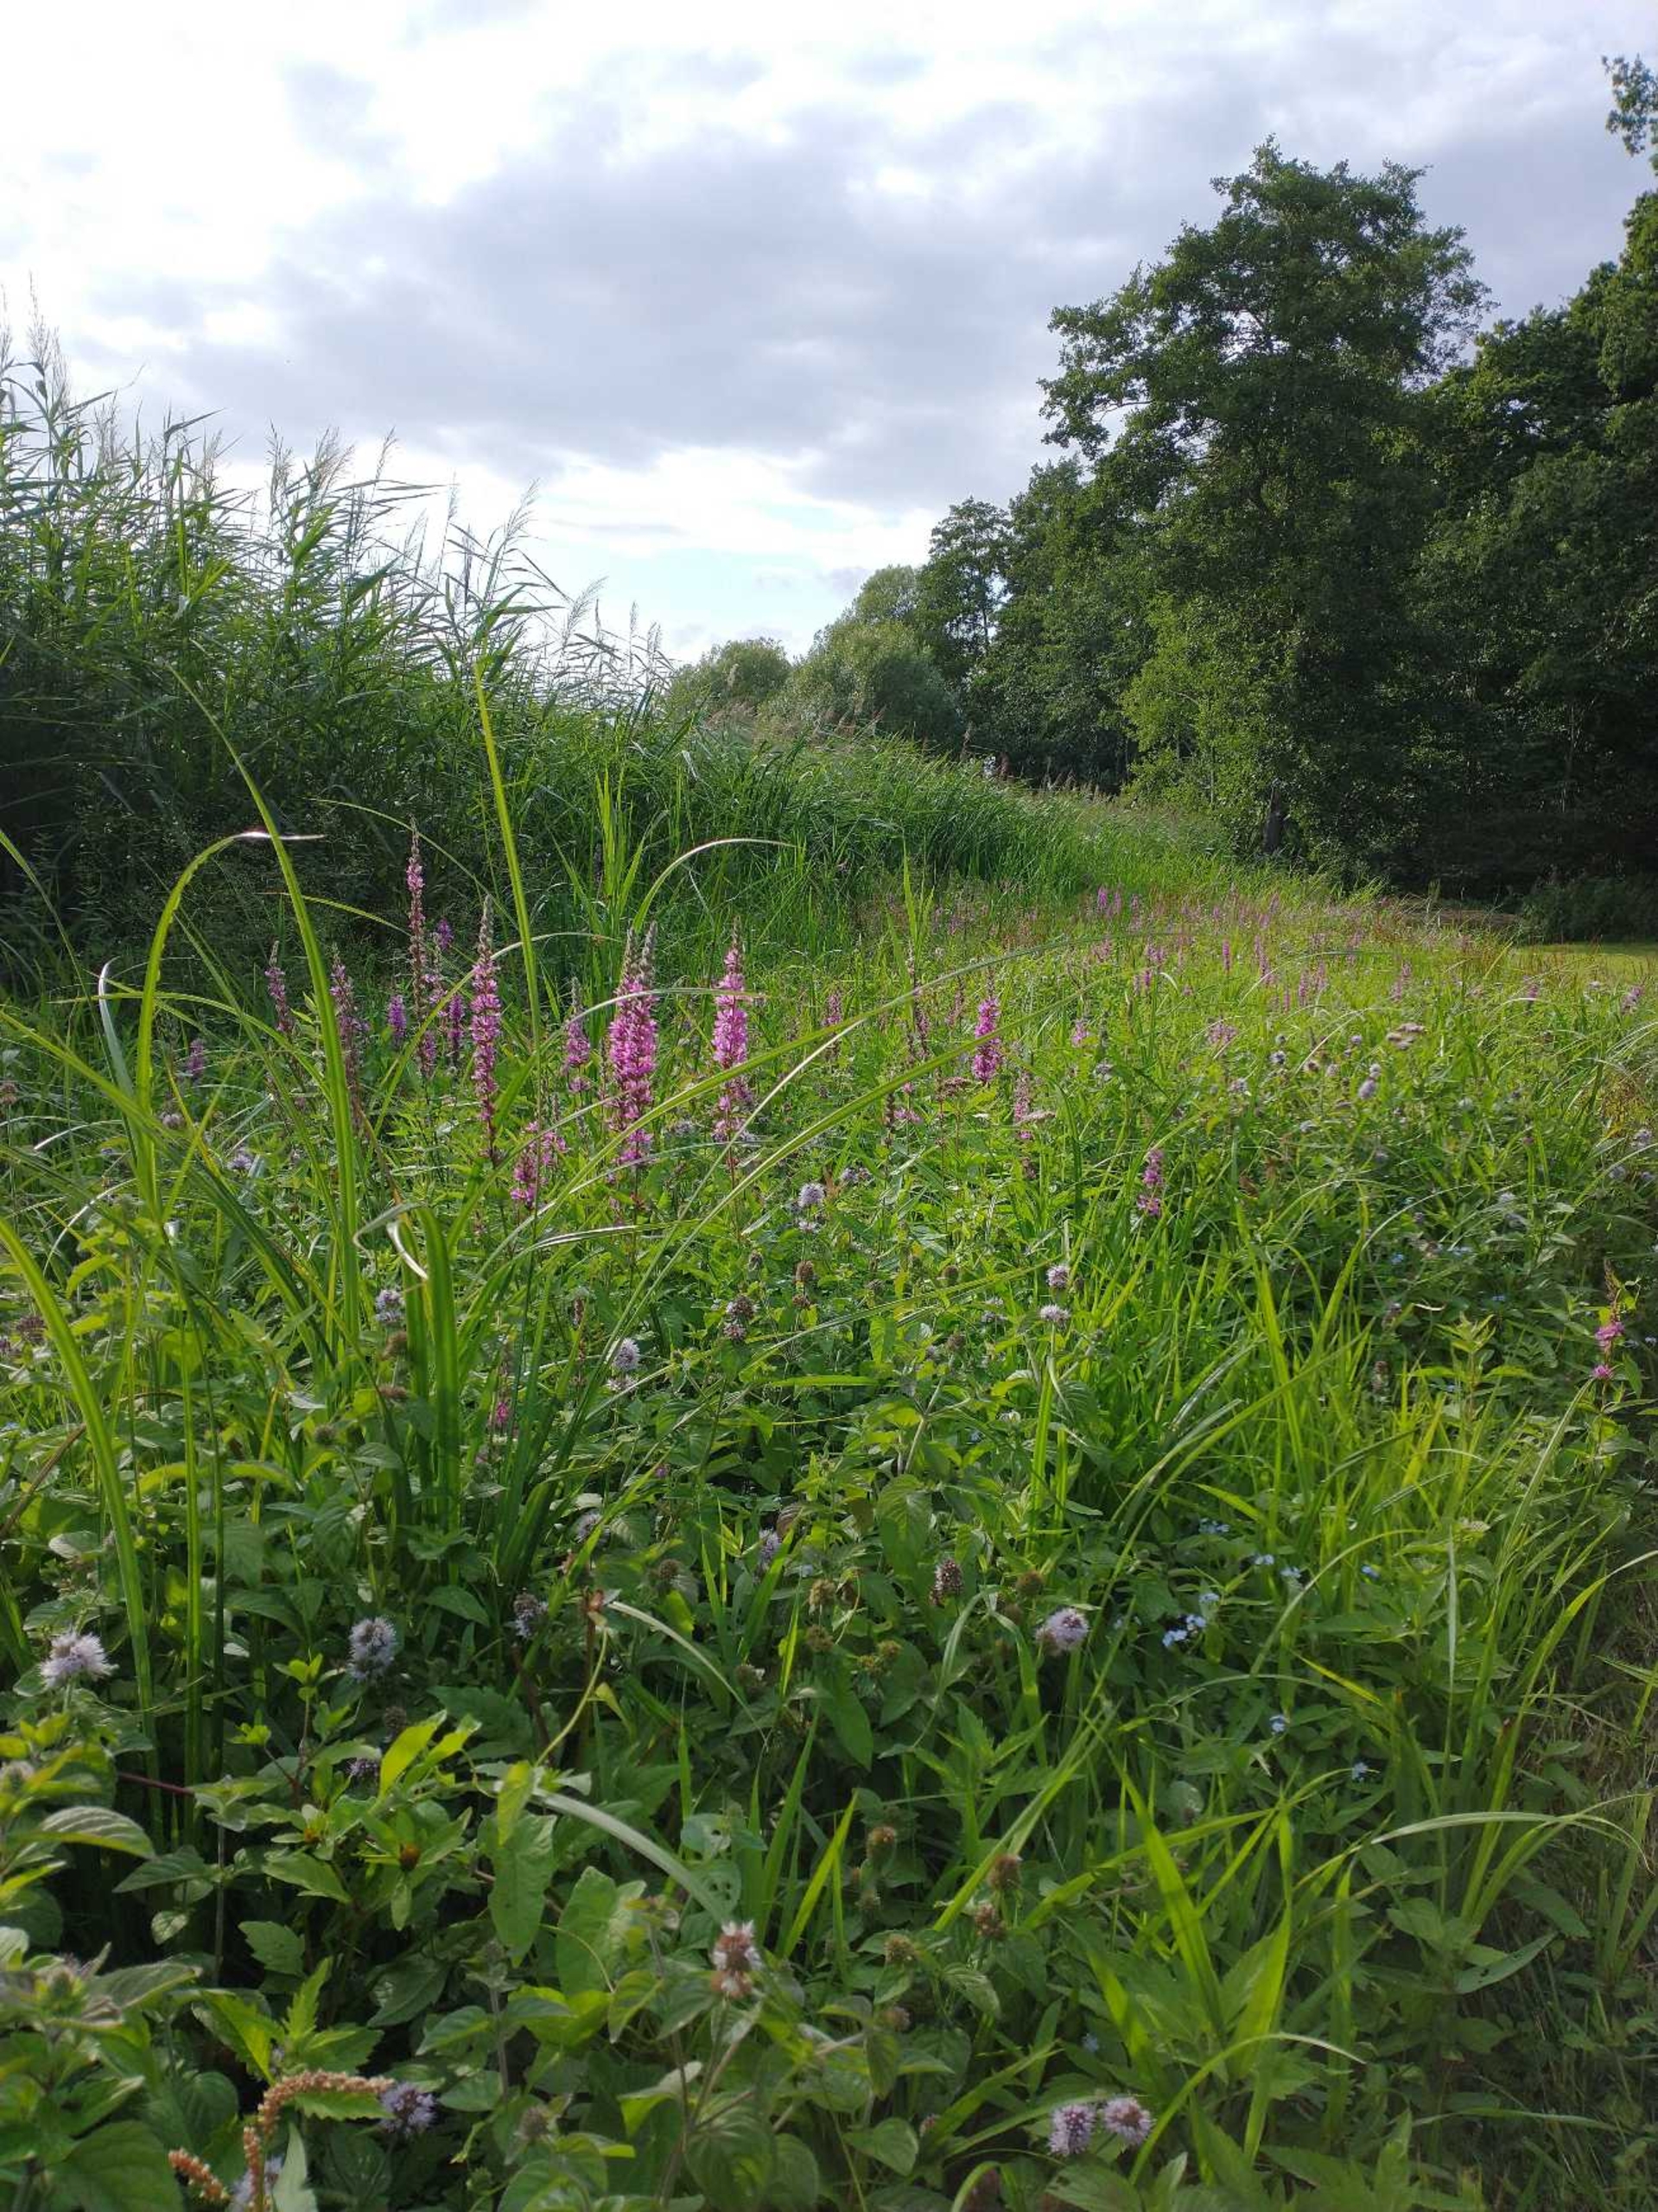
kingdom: Plantae
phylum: Tracheophyta
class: Magnoliopsida
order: Myrtales
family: Lythraceae
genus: Lythrum
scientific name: Lythrum salicaria
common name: Kattehale
